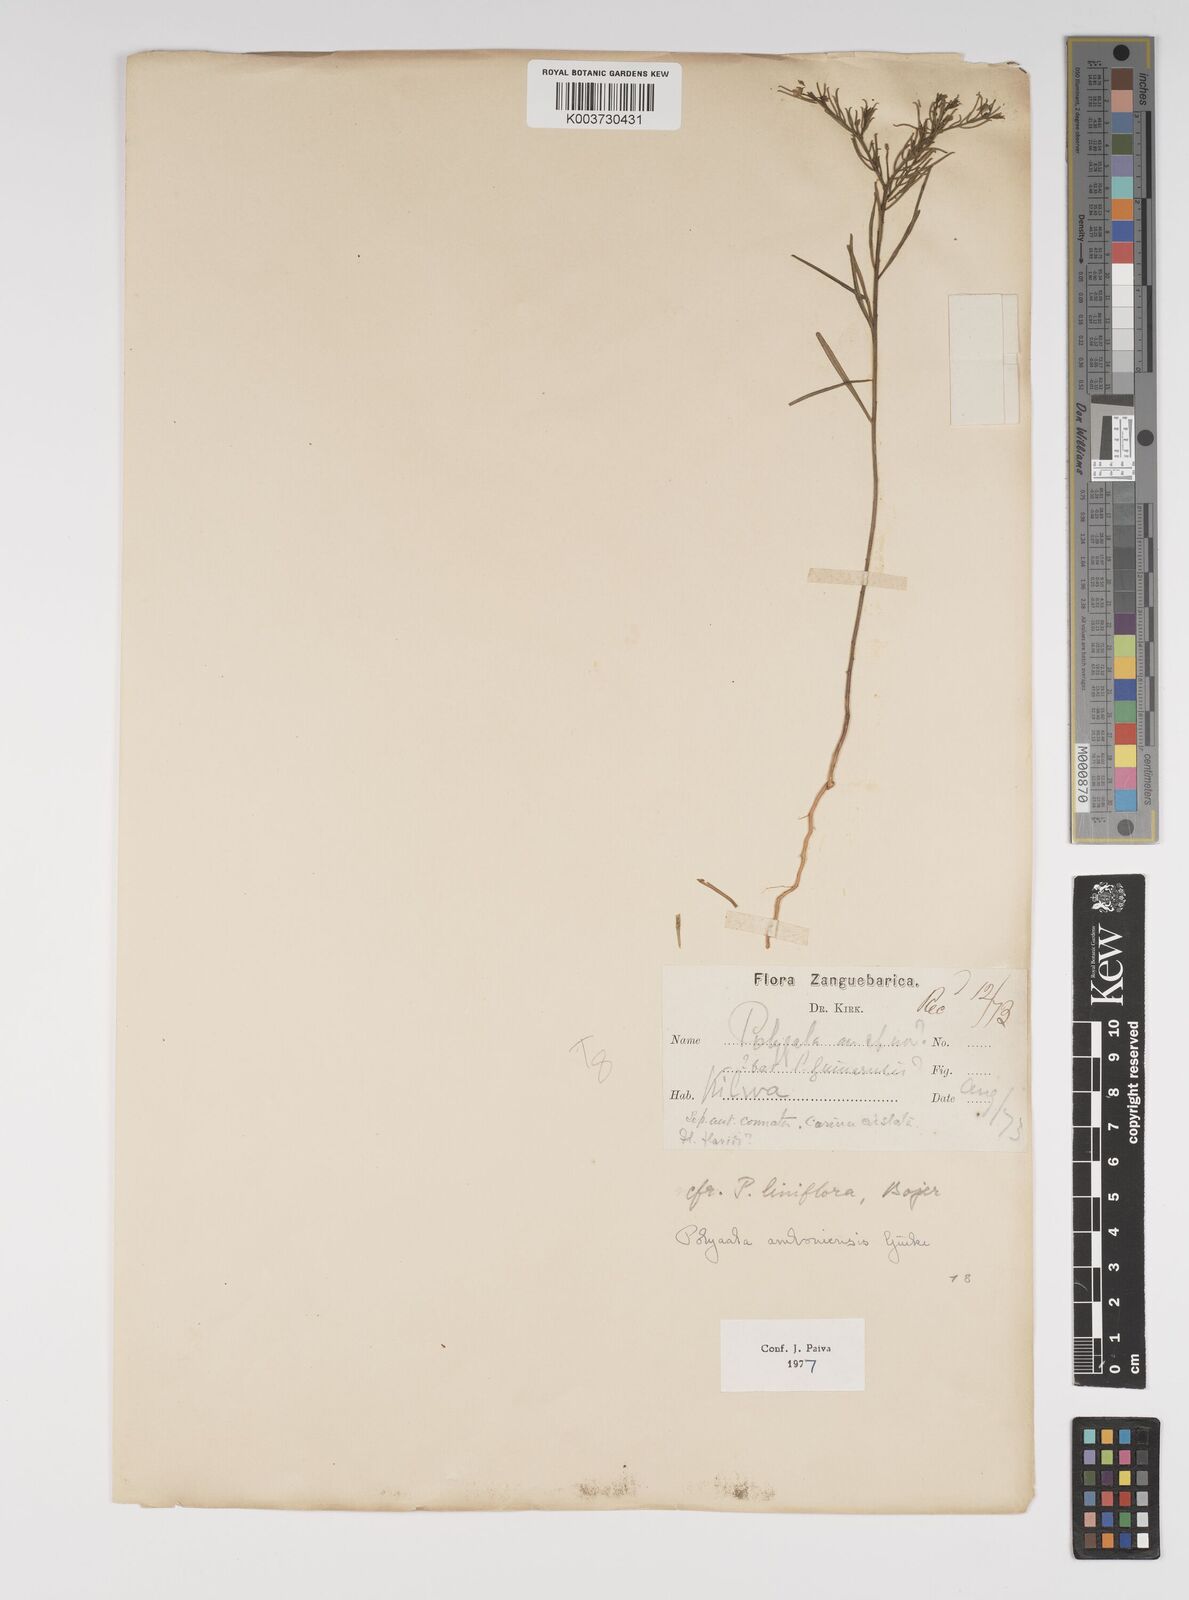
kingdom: Plantae
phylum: Tracheophyta
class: Magnoliopsida
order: Fabales
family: Polygalaceae
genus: Polygala
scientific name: Polygala amboniensis
